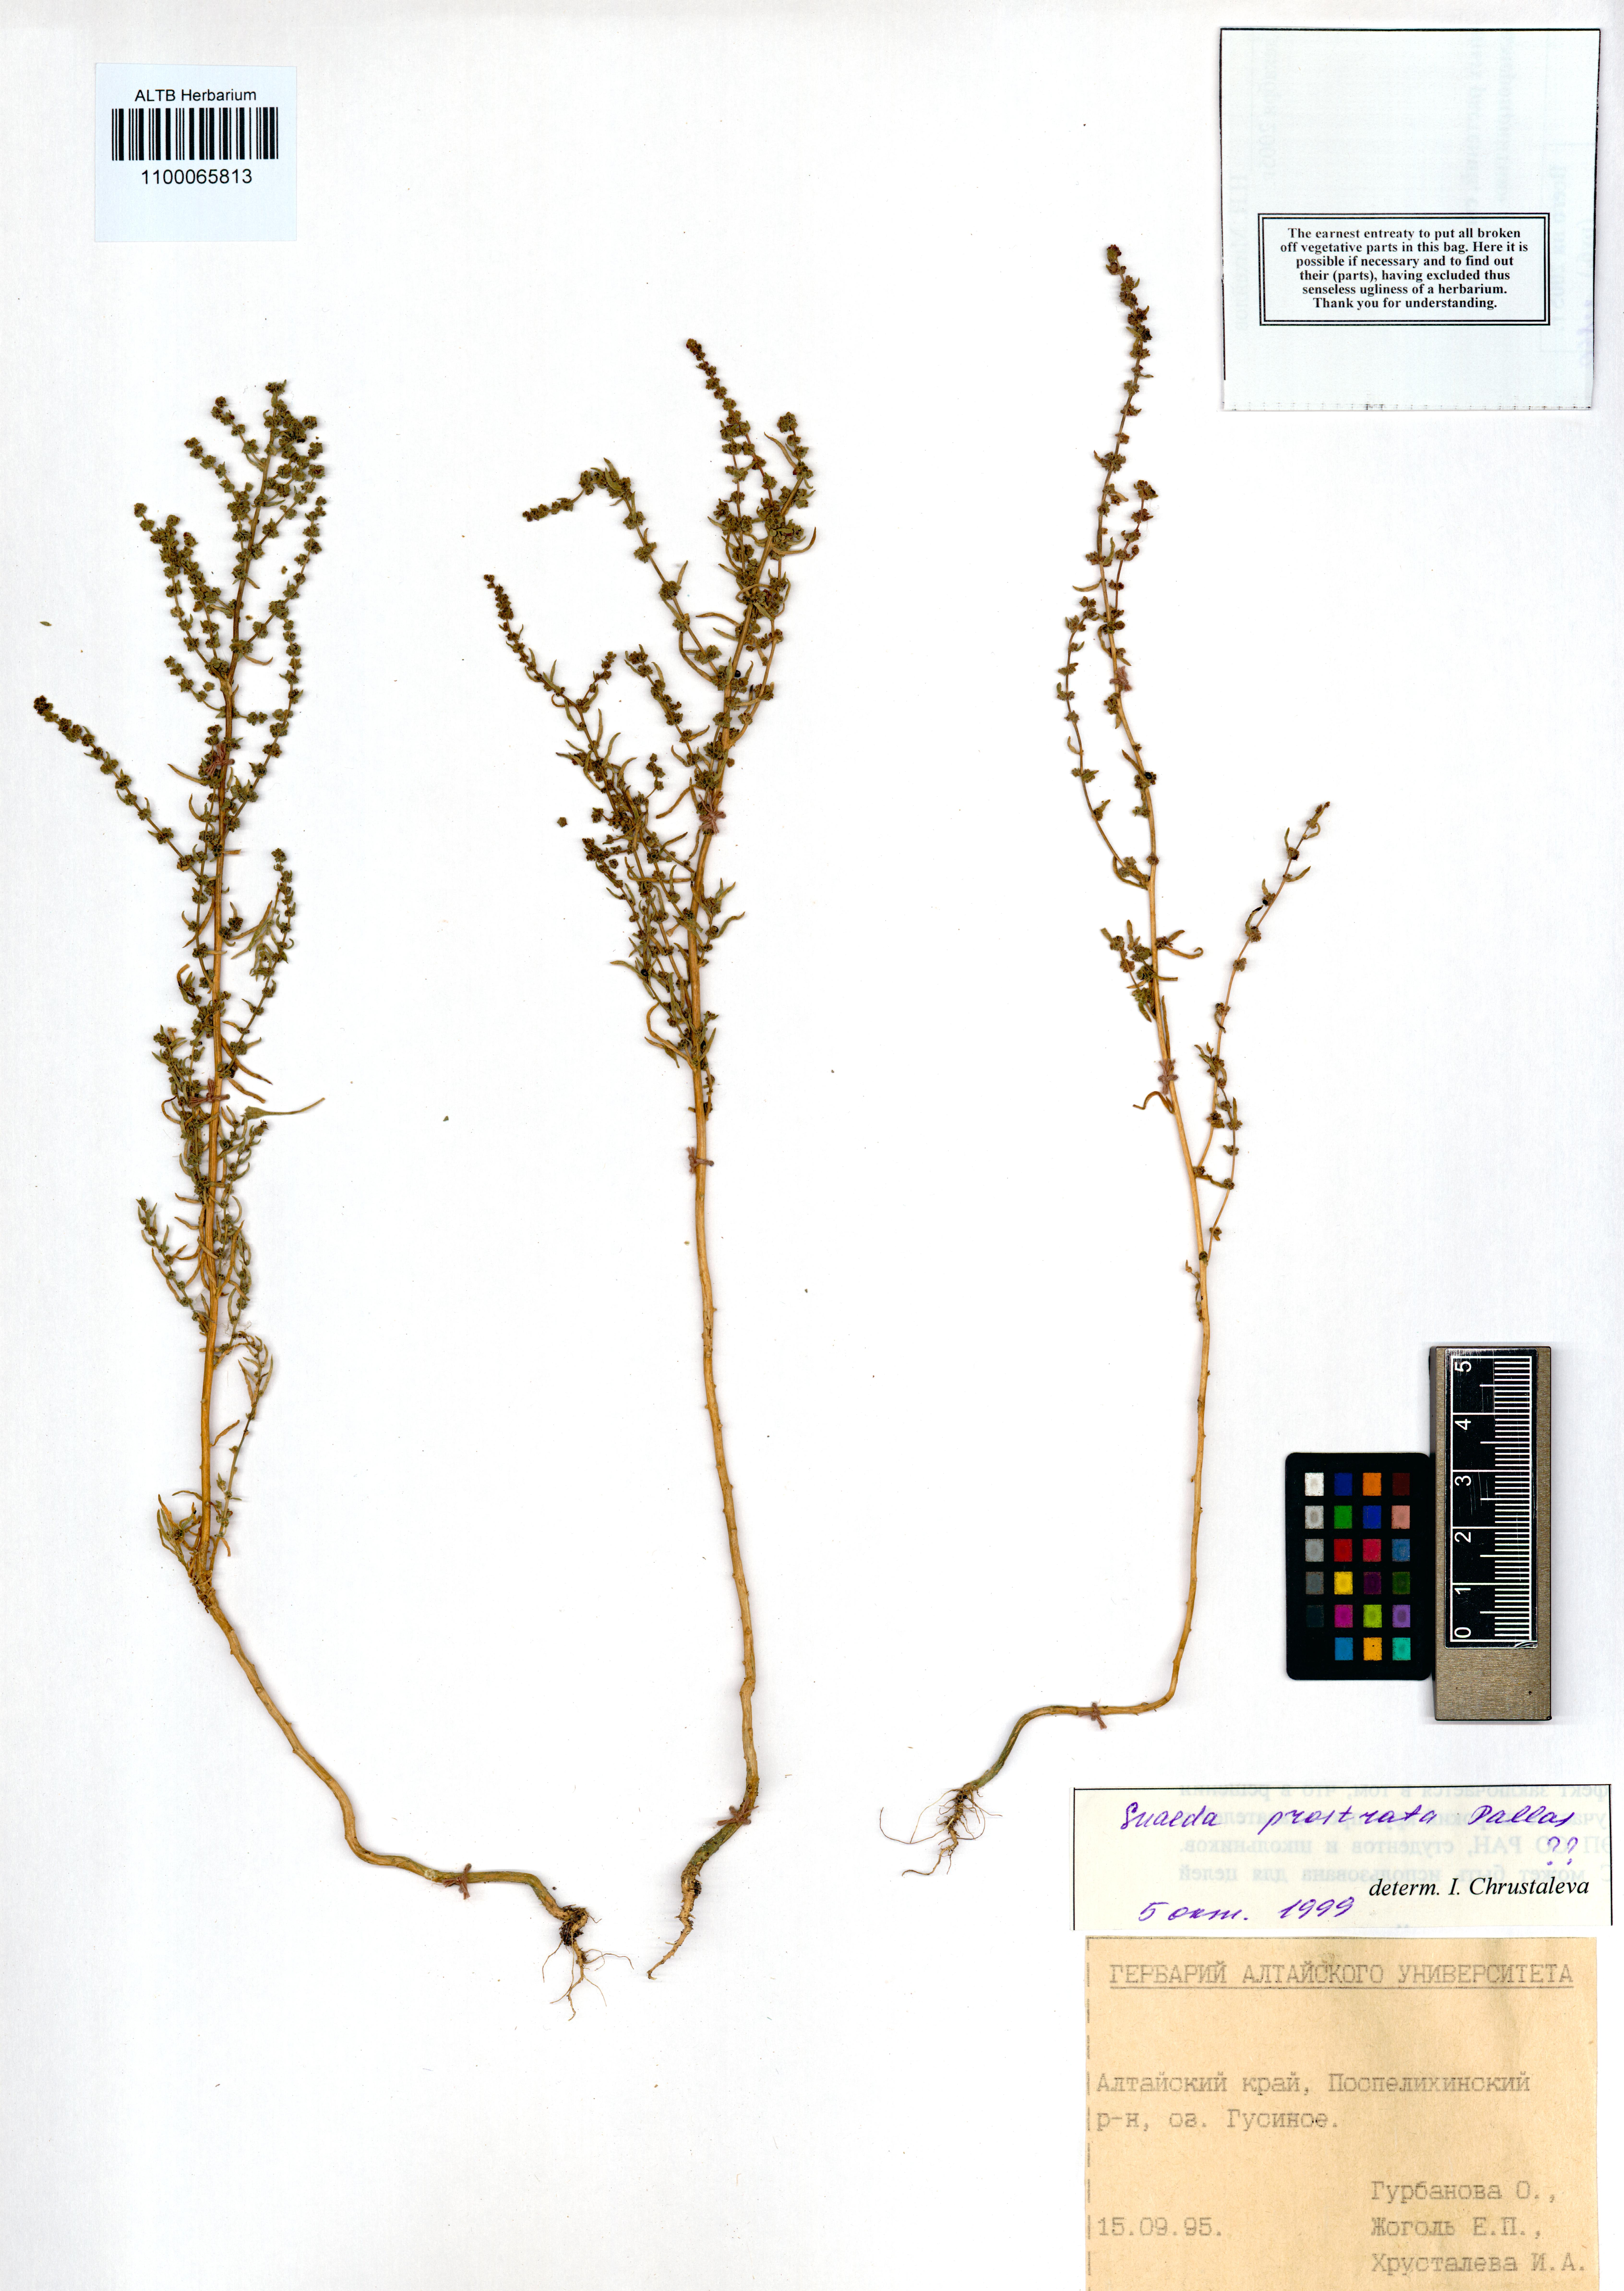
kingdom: Plantae
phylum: Tracheophyta
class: Magnoliopsida
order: Caryophyllales
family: Amaranthaceae
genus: Suaeda
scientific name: Suaeda prostrata
